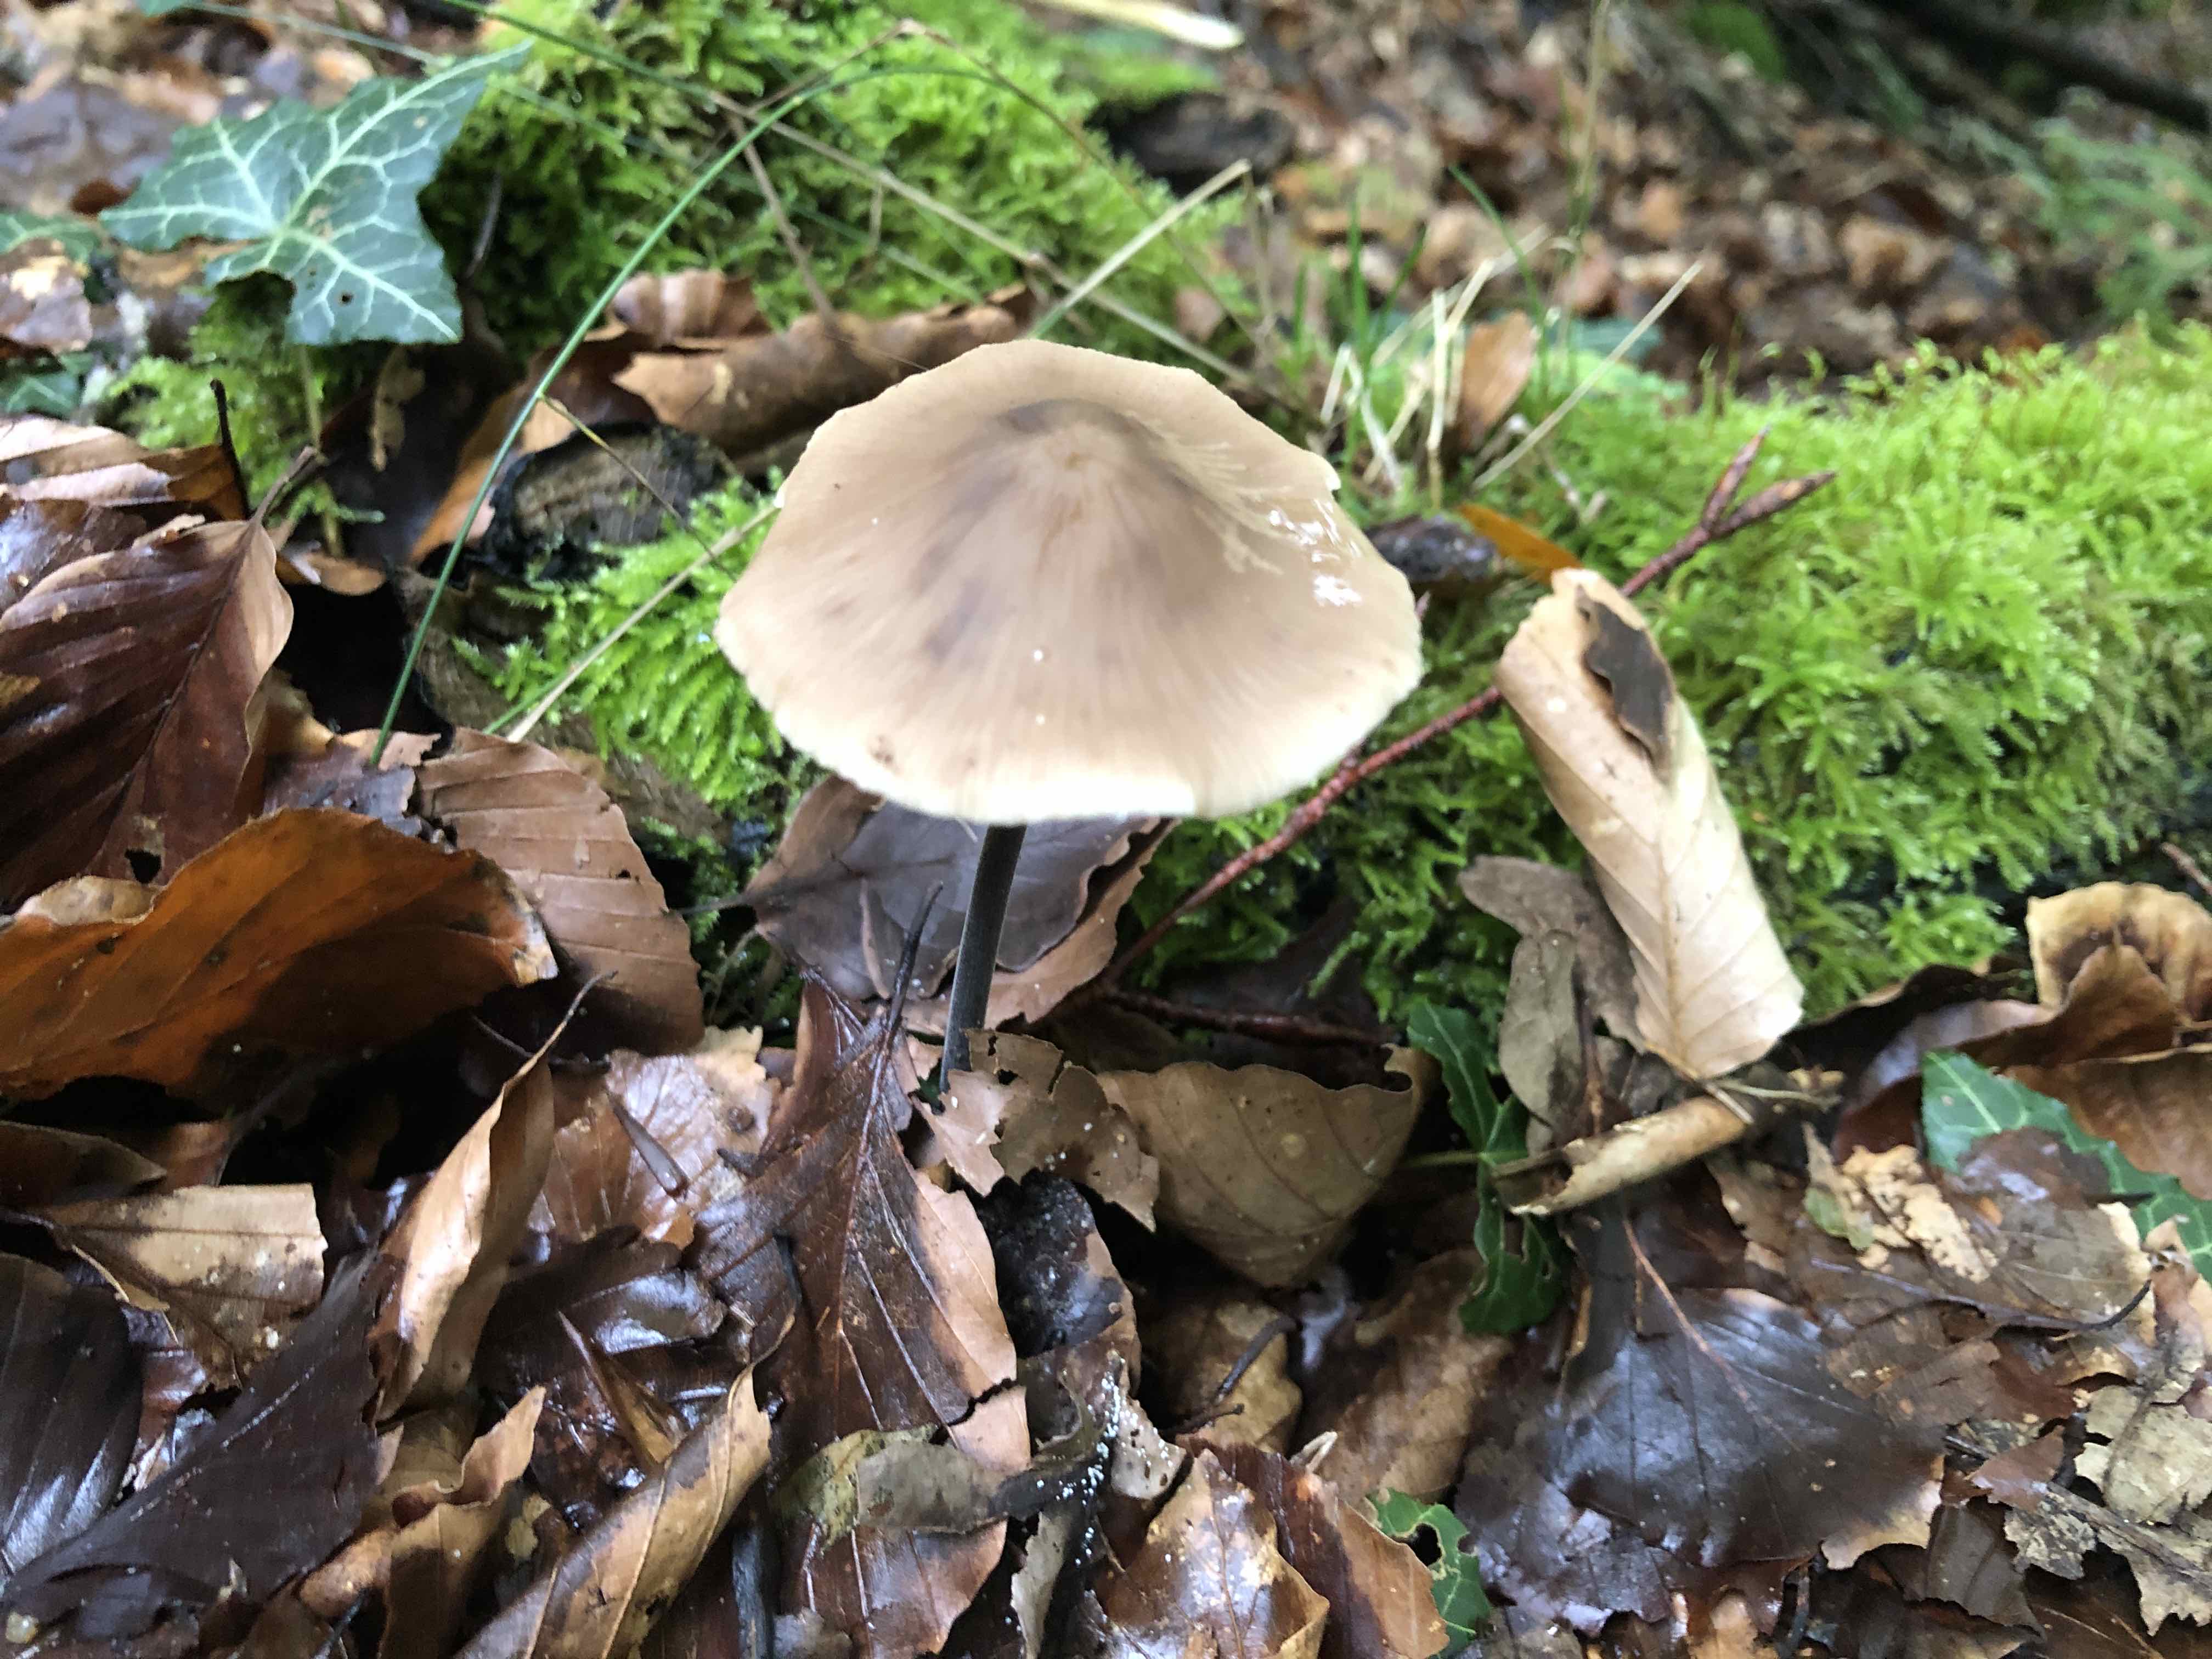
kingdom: Fungi
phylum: Basidiomycota
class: Agaricomycetes
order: Agaricales
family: Omphalotaceae
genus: Mycetinis
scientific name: Mycetinis alliaceus
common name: stor løghat
